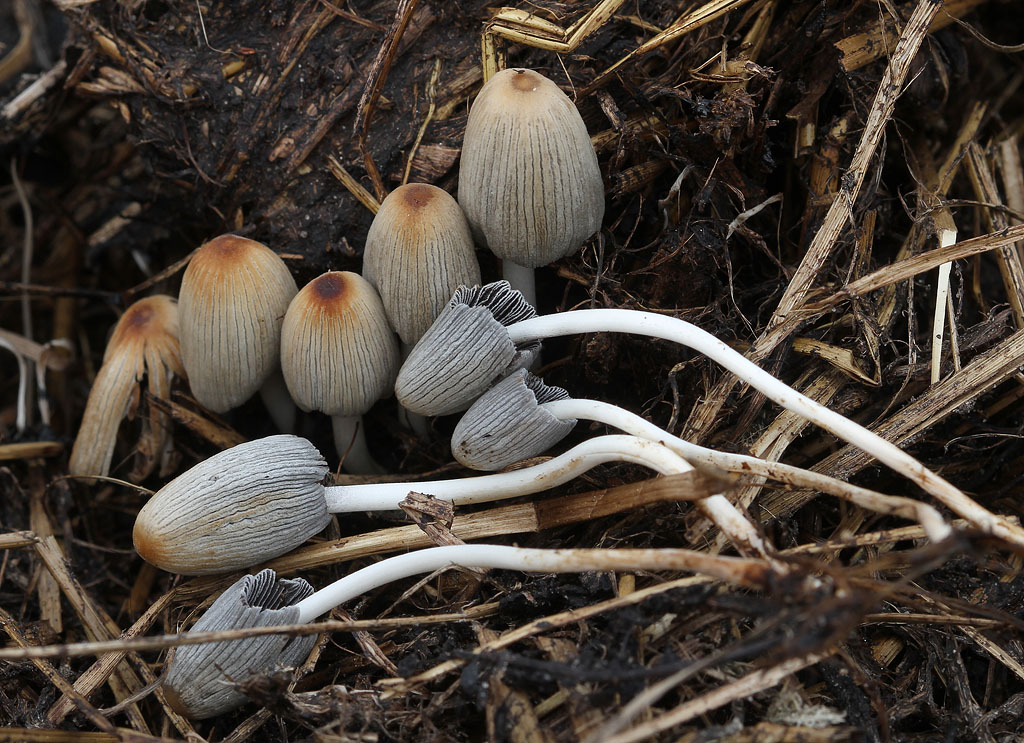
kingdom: Fungi
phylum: Basidiomycota
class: Agaricomycetes
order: Agaricales
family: Psathyrellaceae
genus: Tulosesus
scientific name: Tulosesus congregatus
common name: klynge-blækhat
